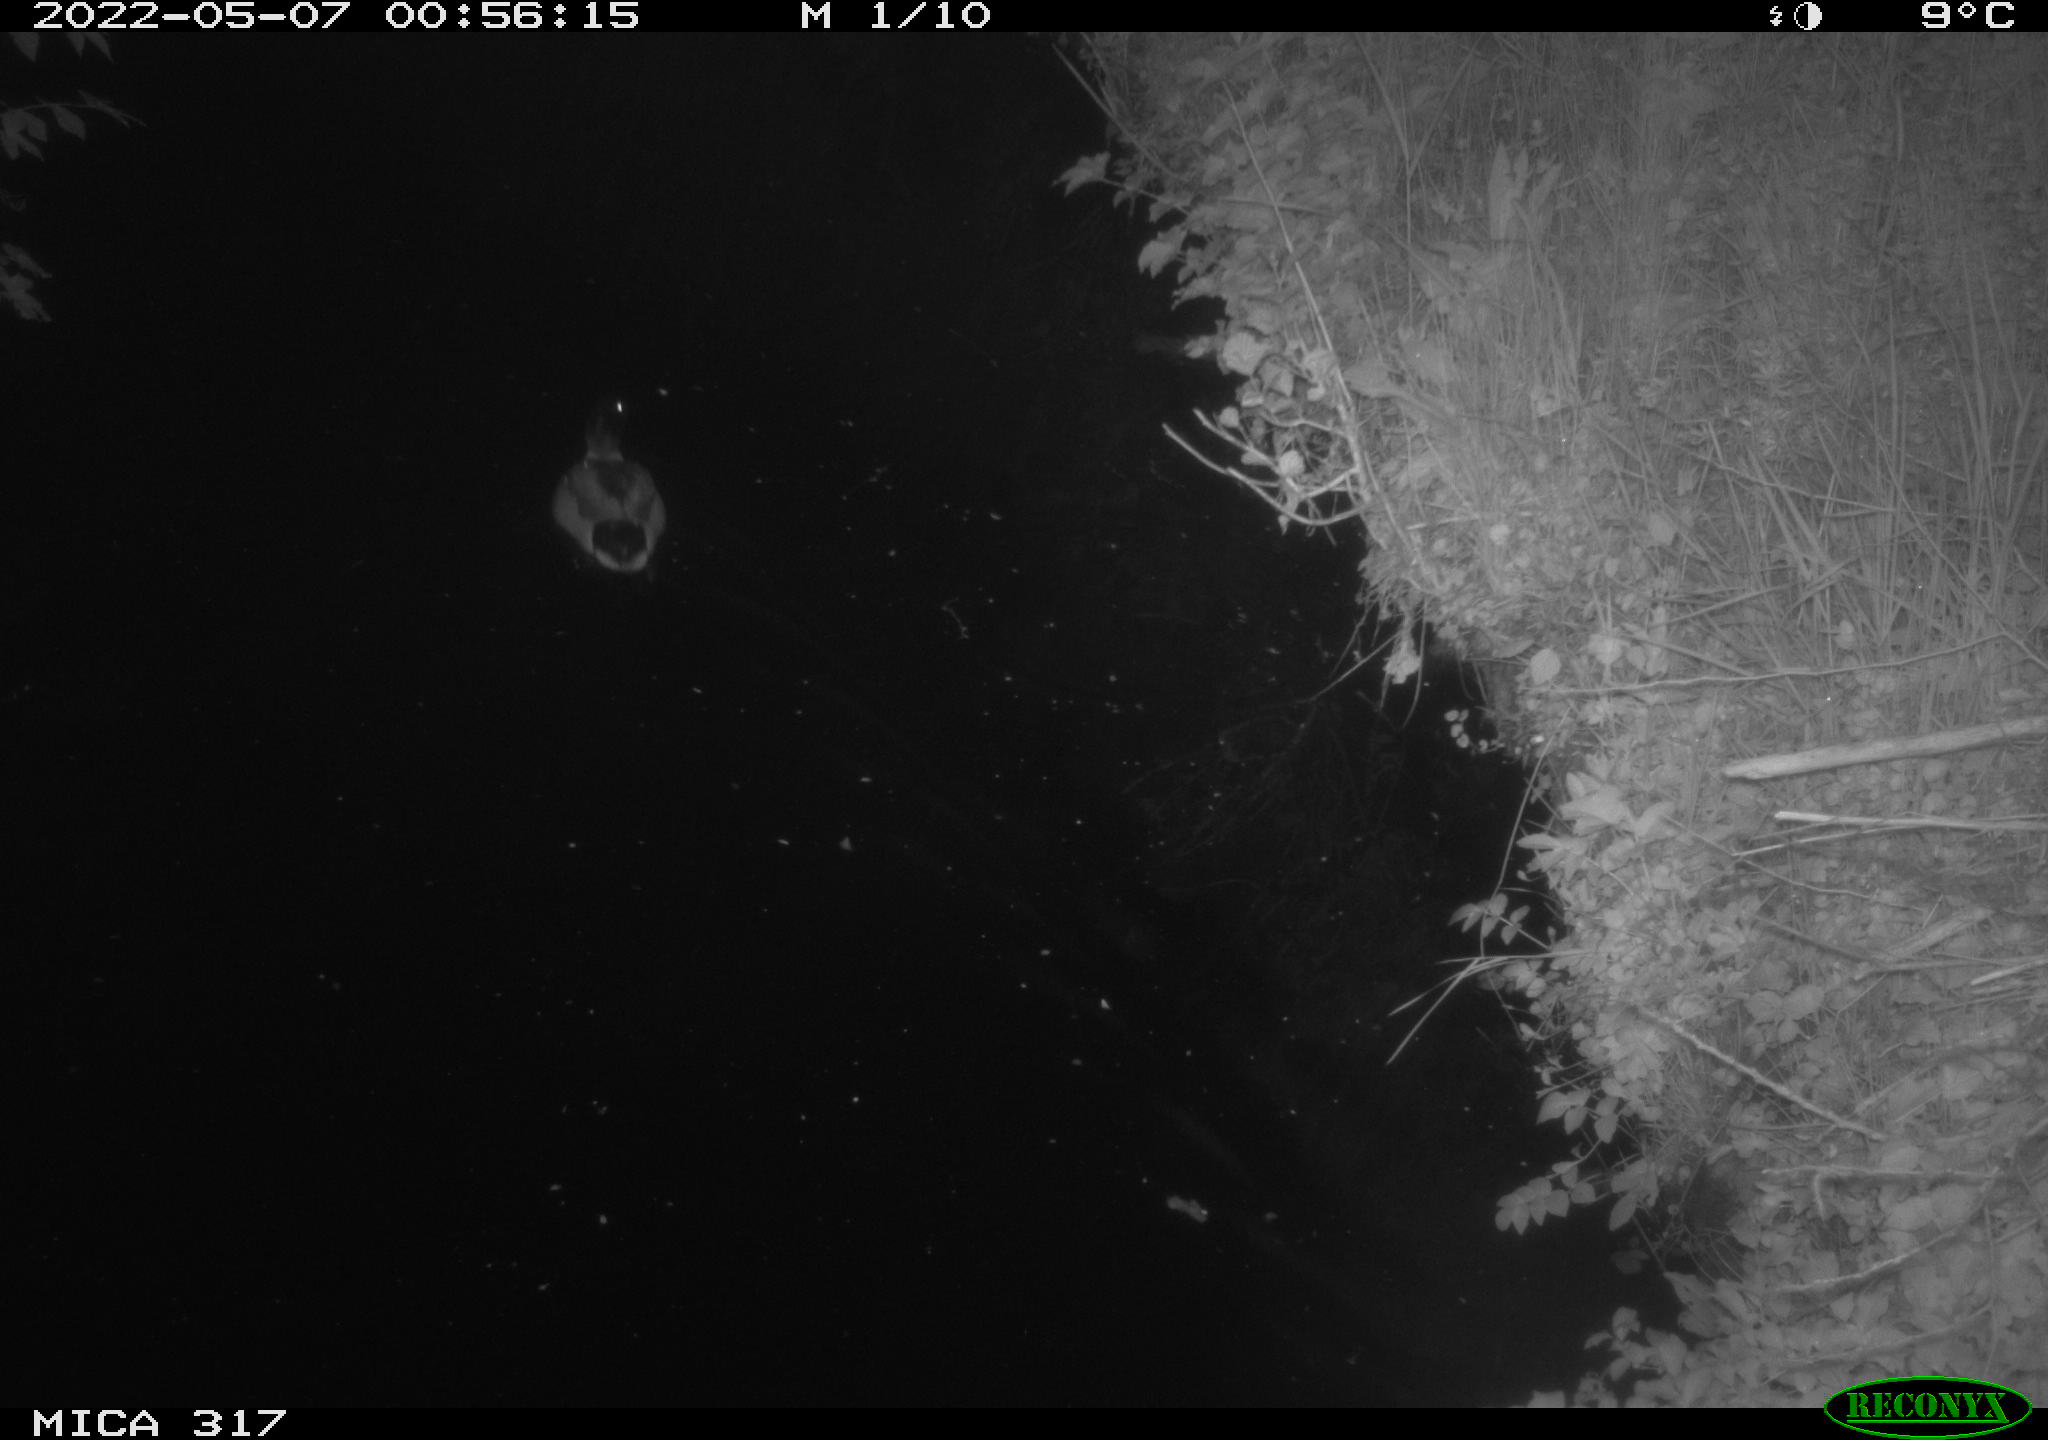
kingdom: Animalia
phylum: Chordata
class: Aves
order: Anseriformes
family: Anatidae
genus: Anas
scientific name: Anas platyrhynchos
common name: Mallard
